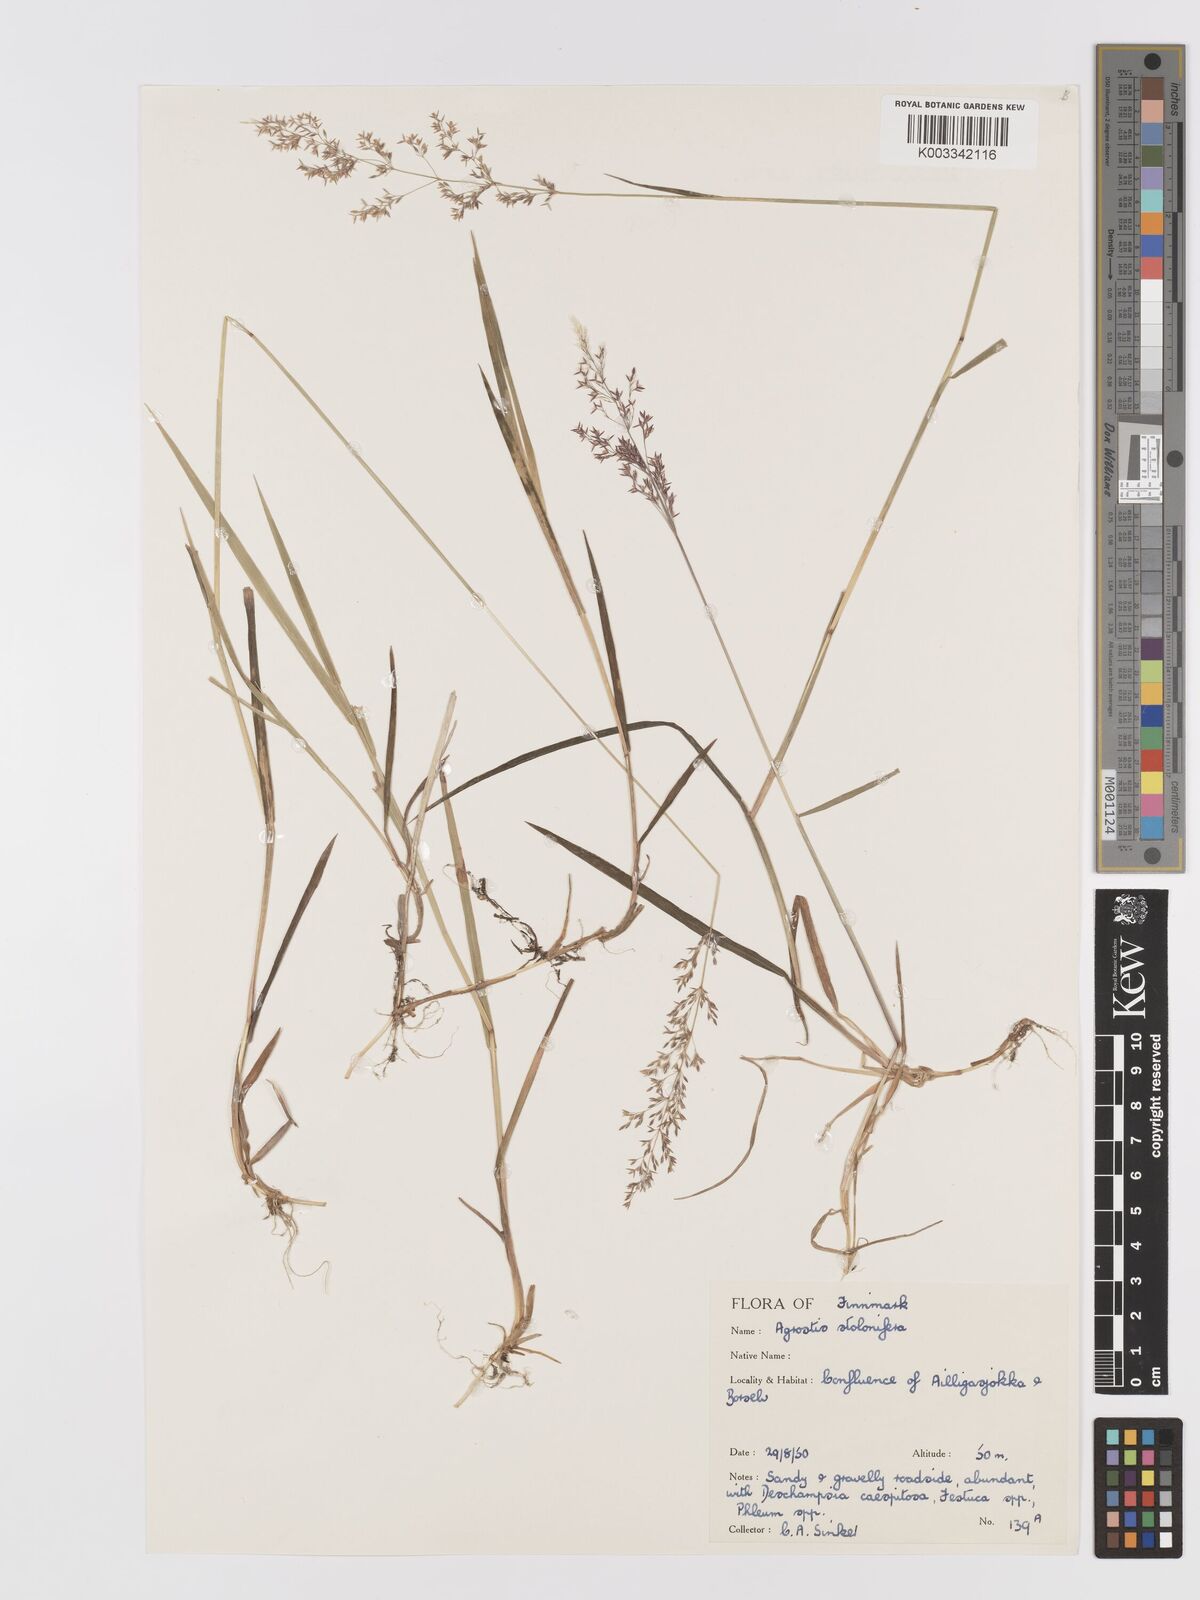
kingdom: Plantae
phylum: Tracheophyta
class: Liliopsida
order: Poales
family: Poaceae
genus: Agrostis
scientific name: Agrostis stolonifera
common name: Creeping bentgrass
